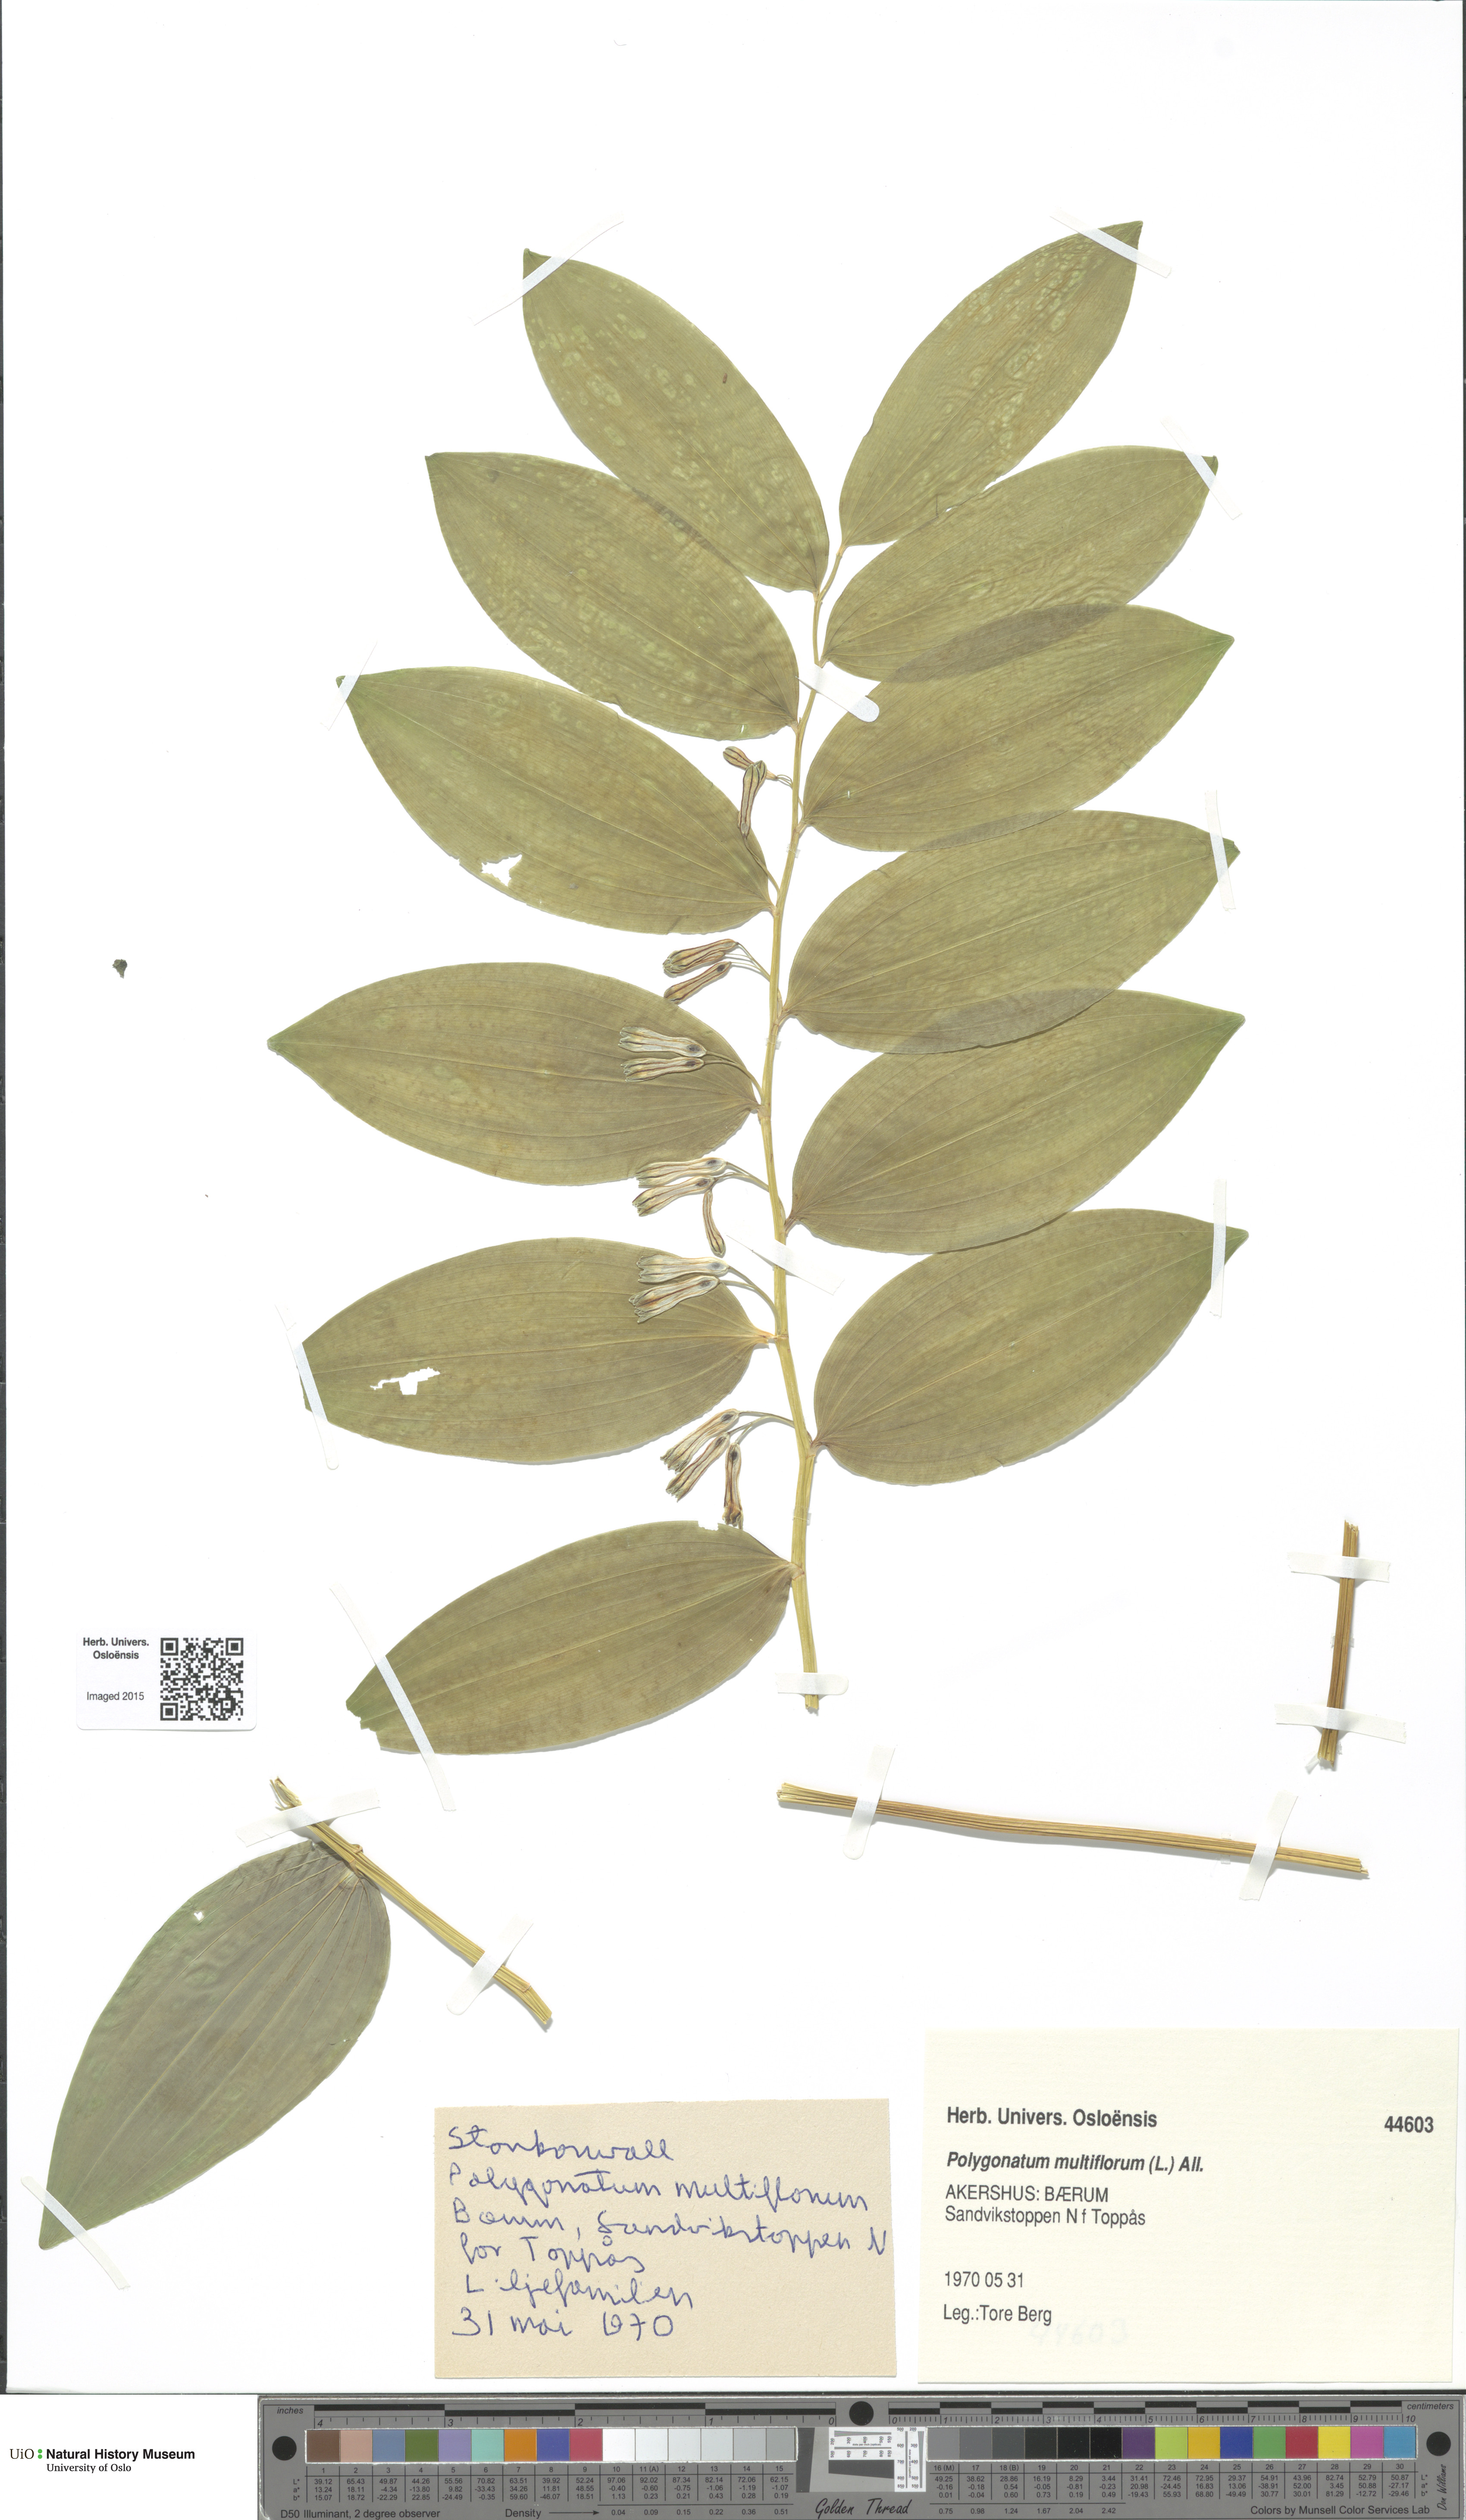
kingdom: Plantae
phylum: Tracheophyta
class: Liliopsida
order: Asparagales
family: Asparagaceae
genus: Polygonatum
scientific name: Polygonatum multiflorum
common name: Solomon's-seal
